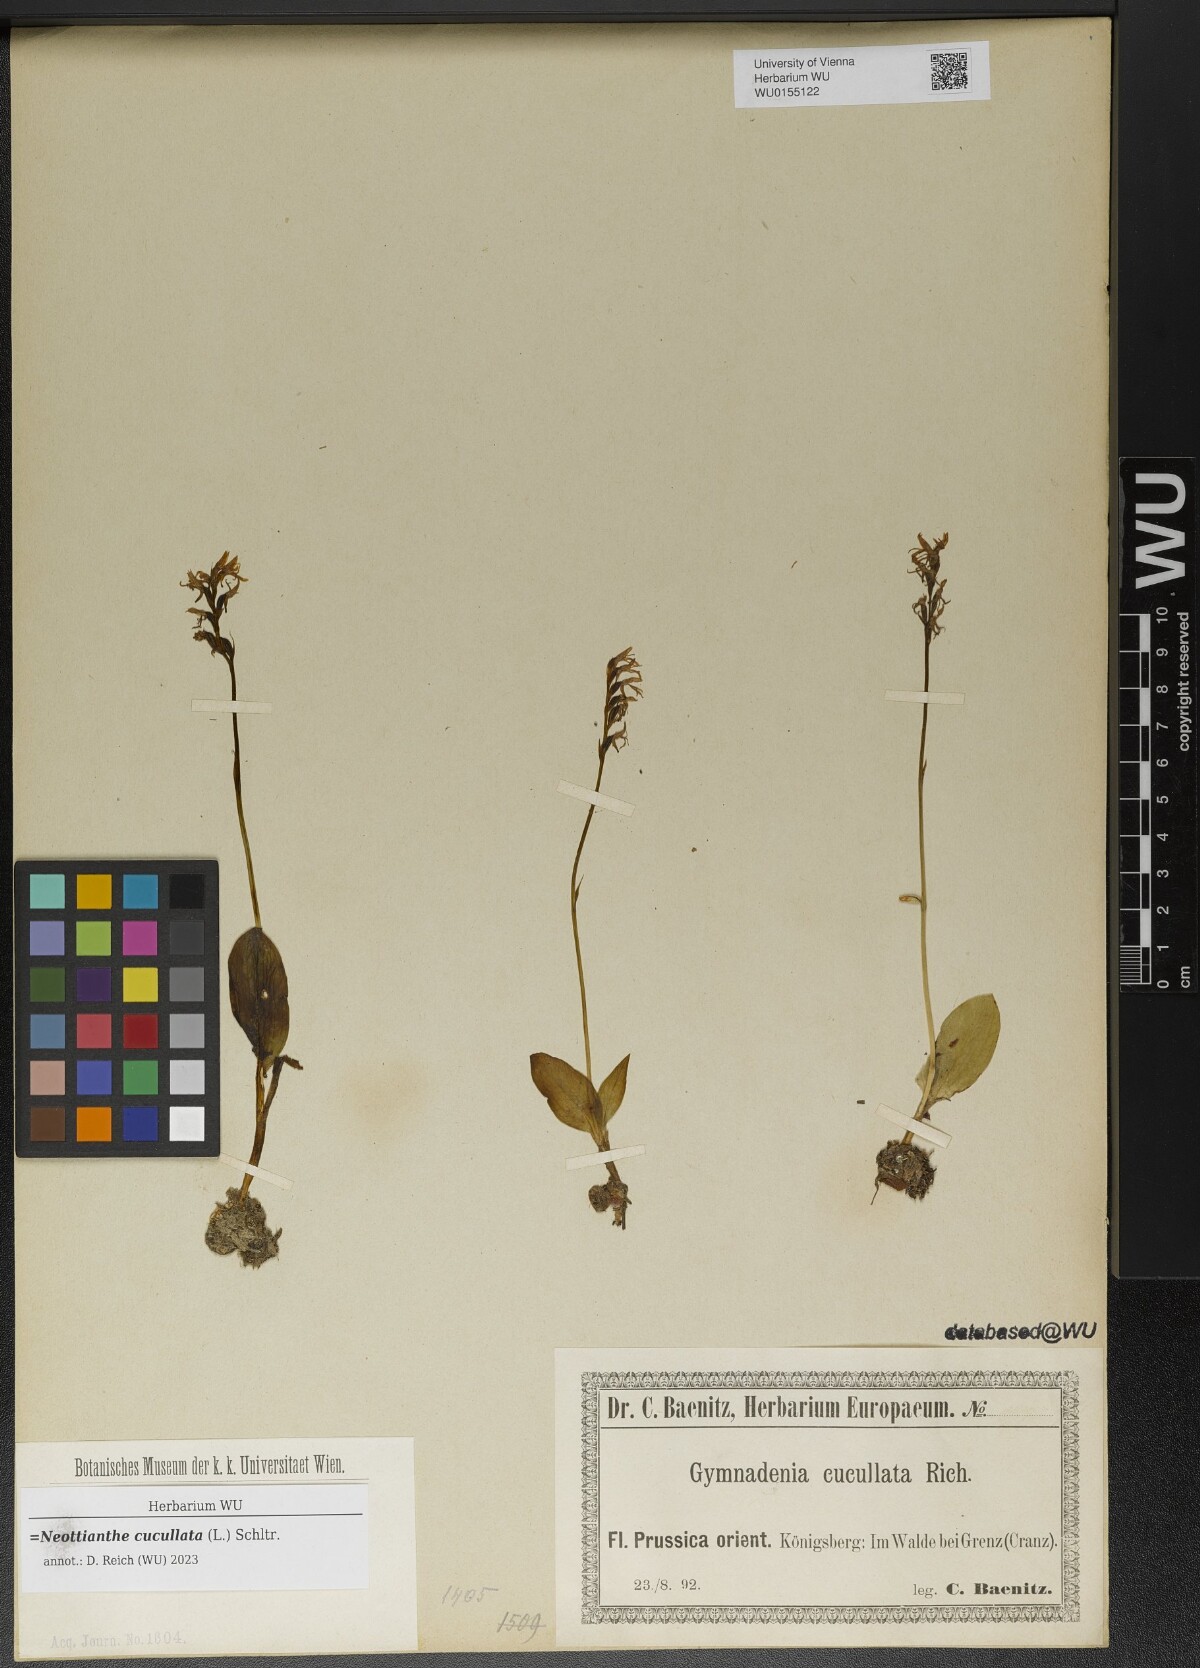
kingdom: Plantae
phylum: Tracheophyta
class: Liliopsida
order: Asparagales
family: Orchidaceae
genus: Hemipilia
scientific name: Hemipilia cucullata
